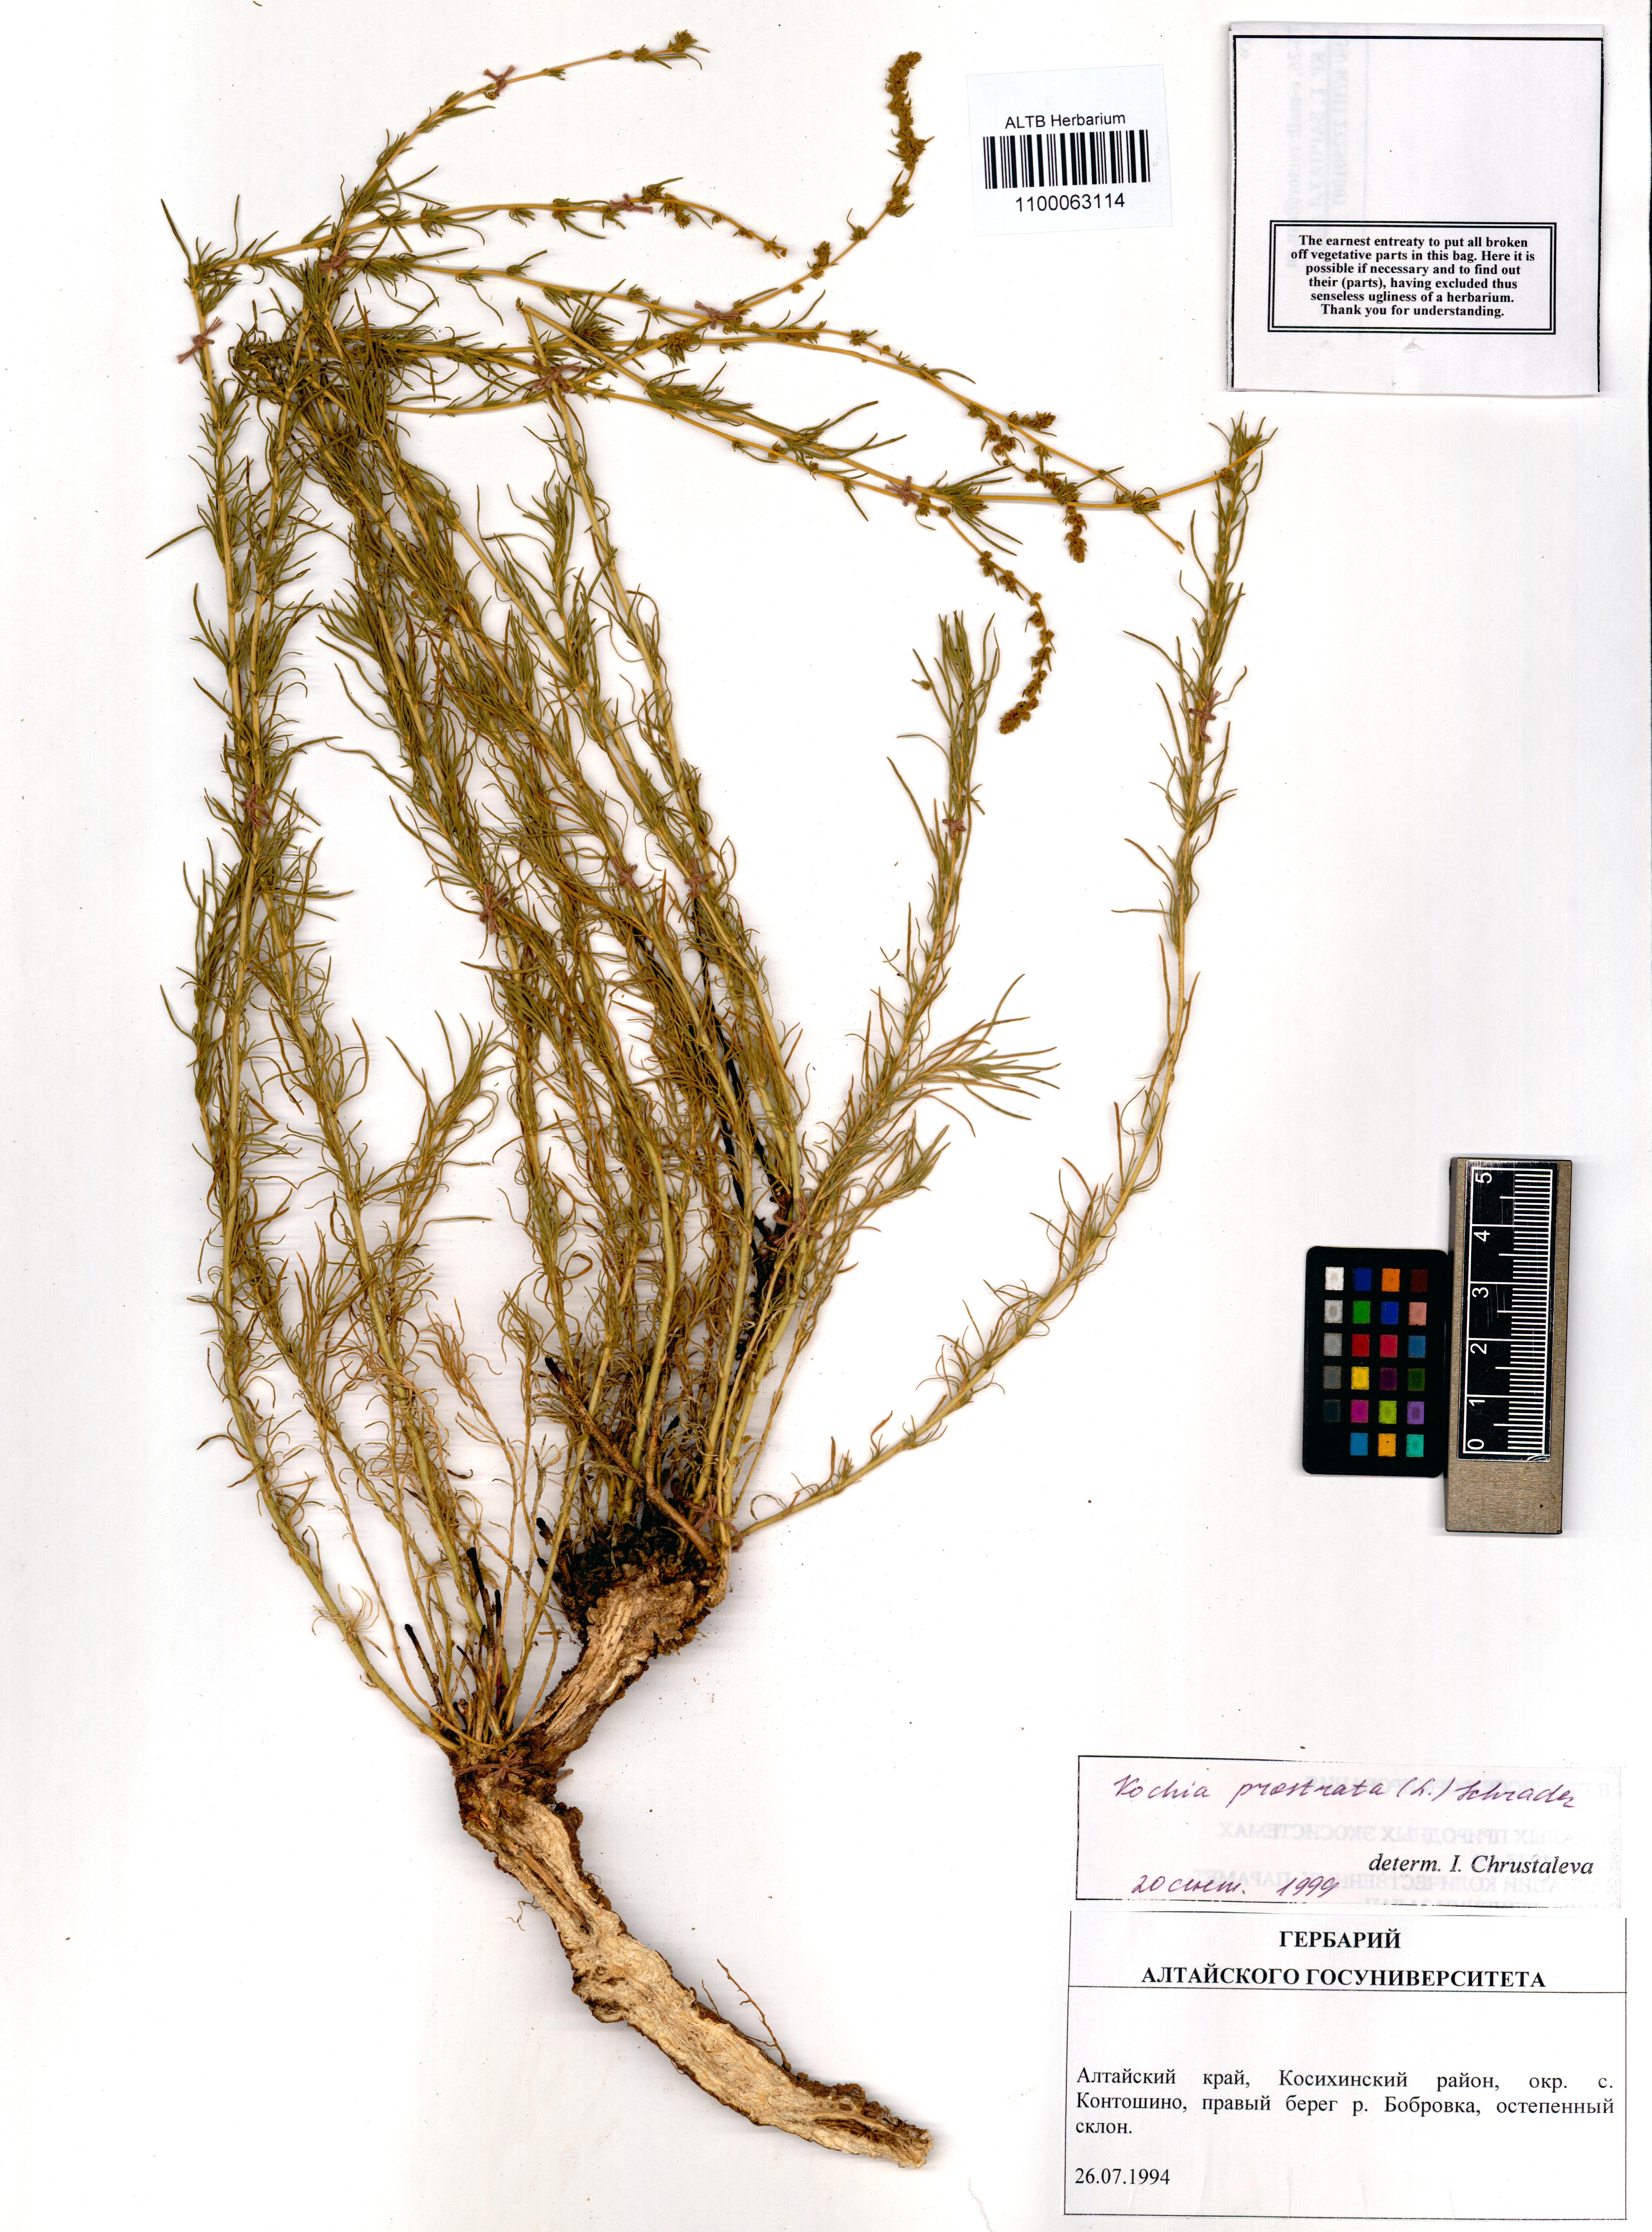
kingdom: Plantae
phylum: Tracheophyta
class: Magnoliopsida
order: Caryophyllales
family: Amaranthaceae
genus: Bassia
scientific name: Bassia prostrata
